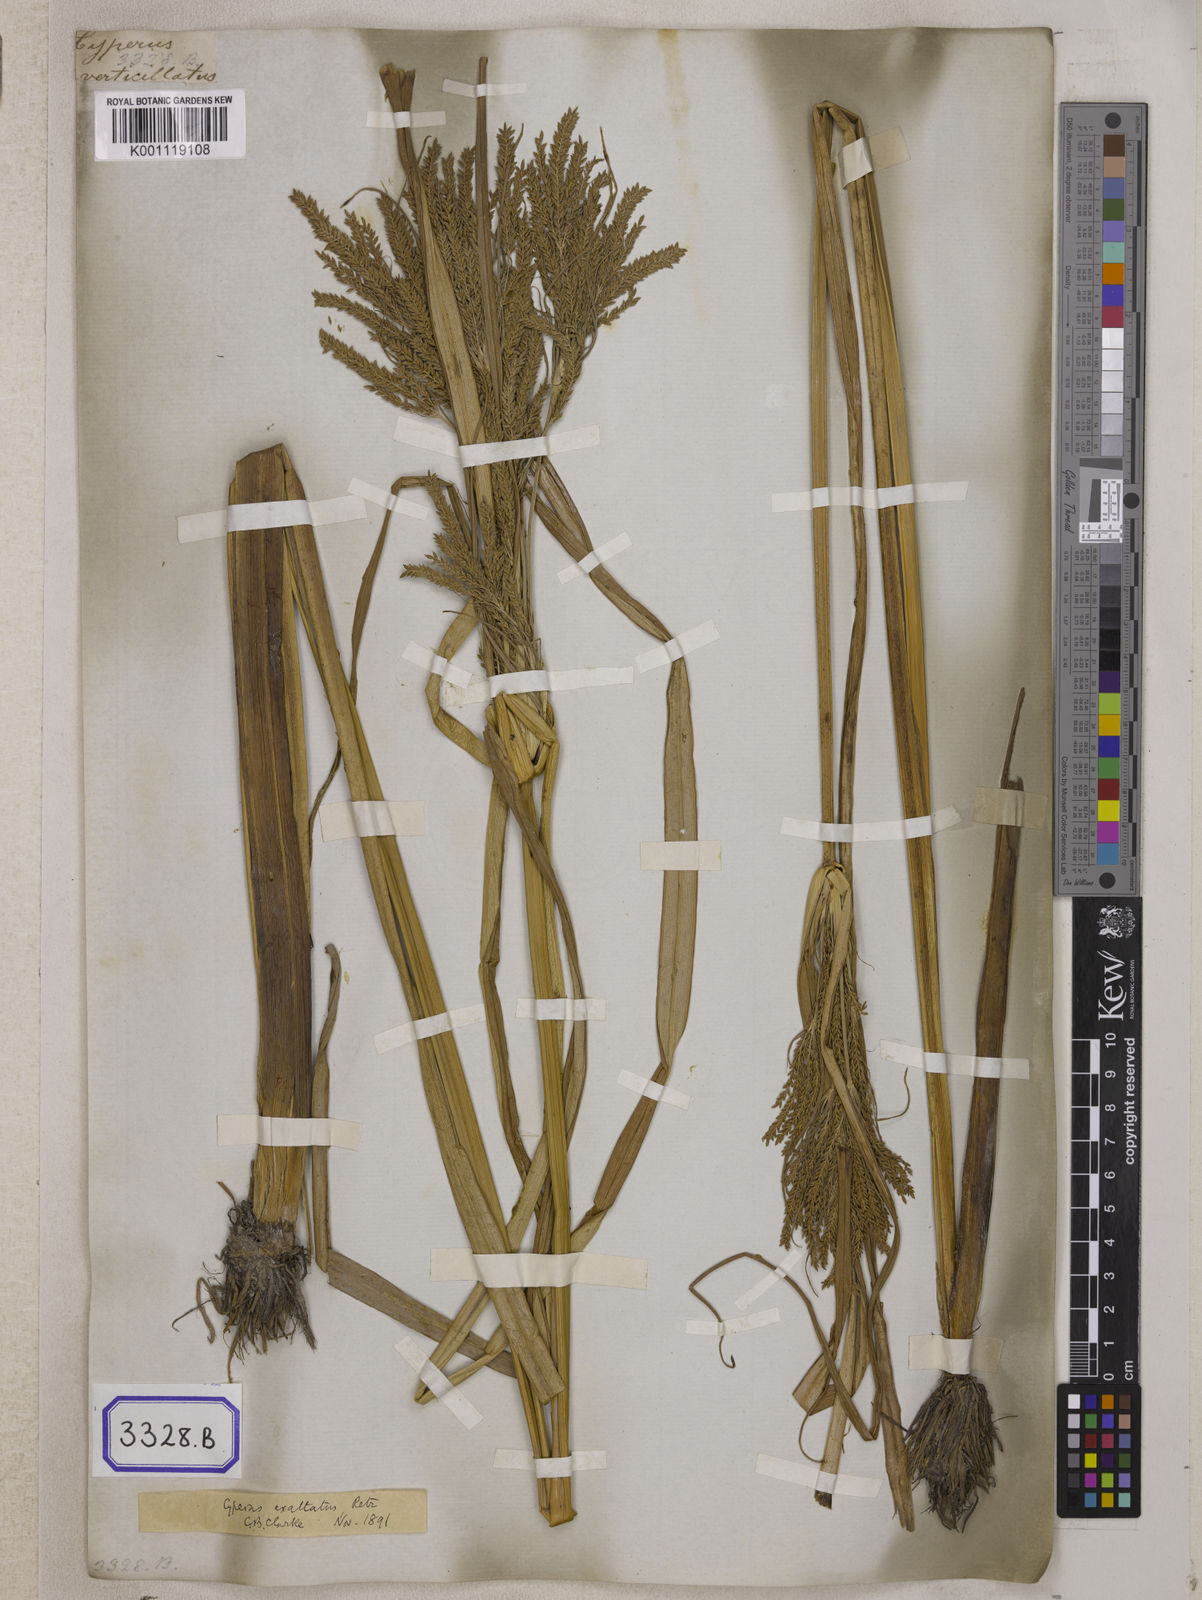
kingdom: Plantae
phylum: Tracheophyta
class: Liliopsida
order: Poales
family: Cyperaceae
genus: Cyperus
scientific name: Cyperus
